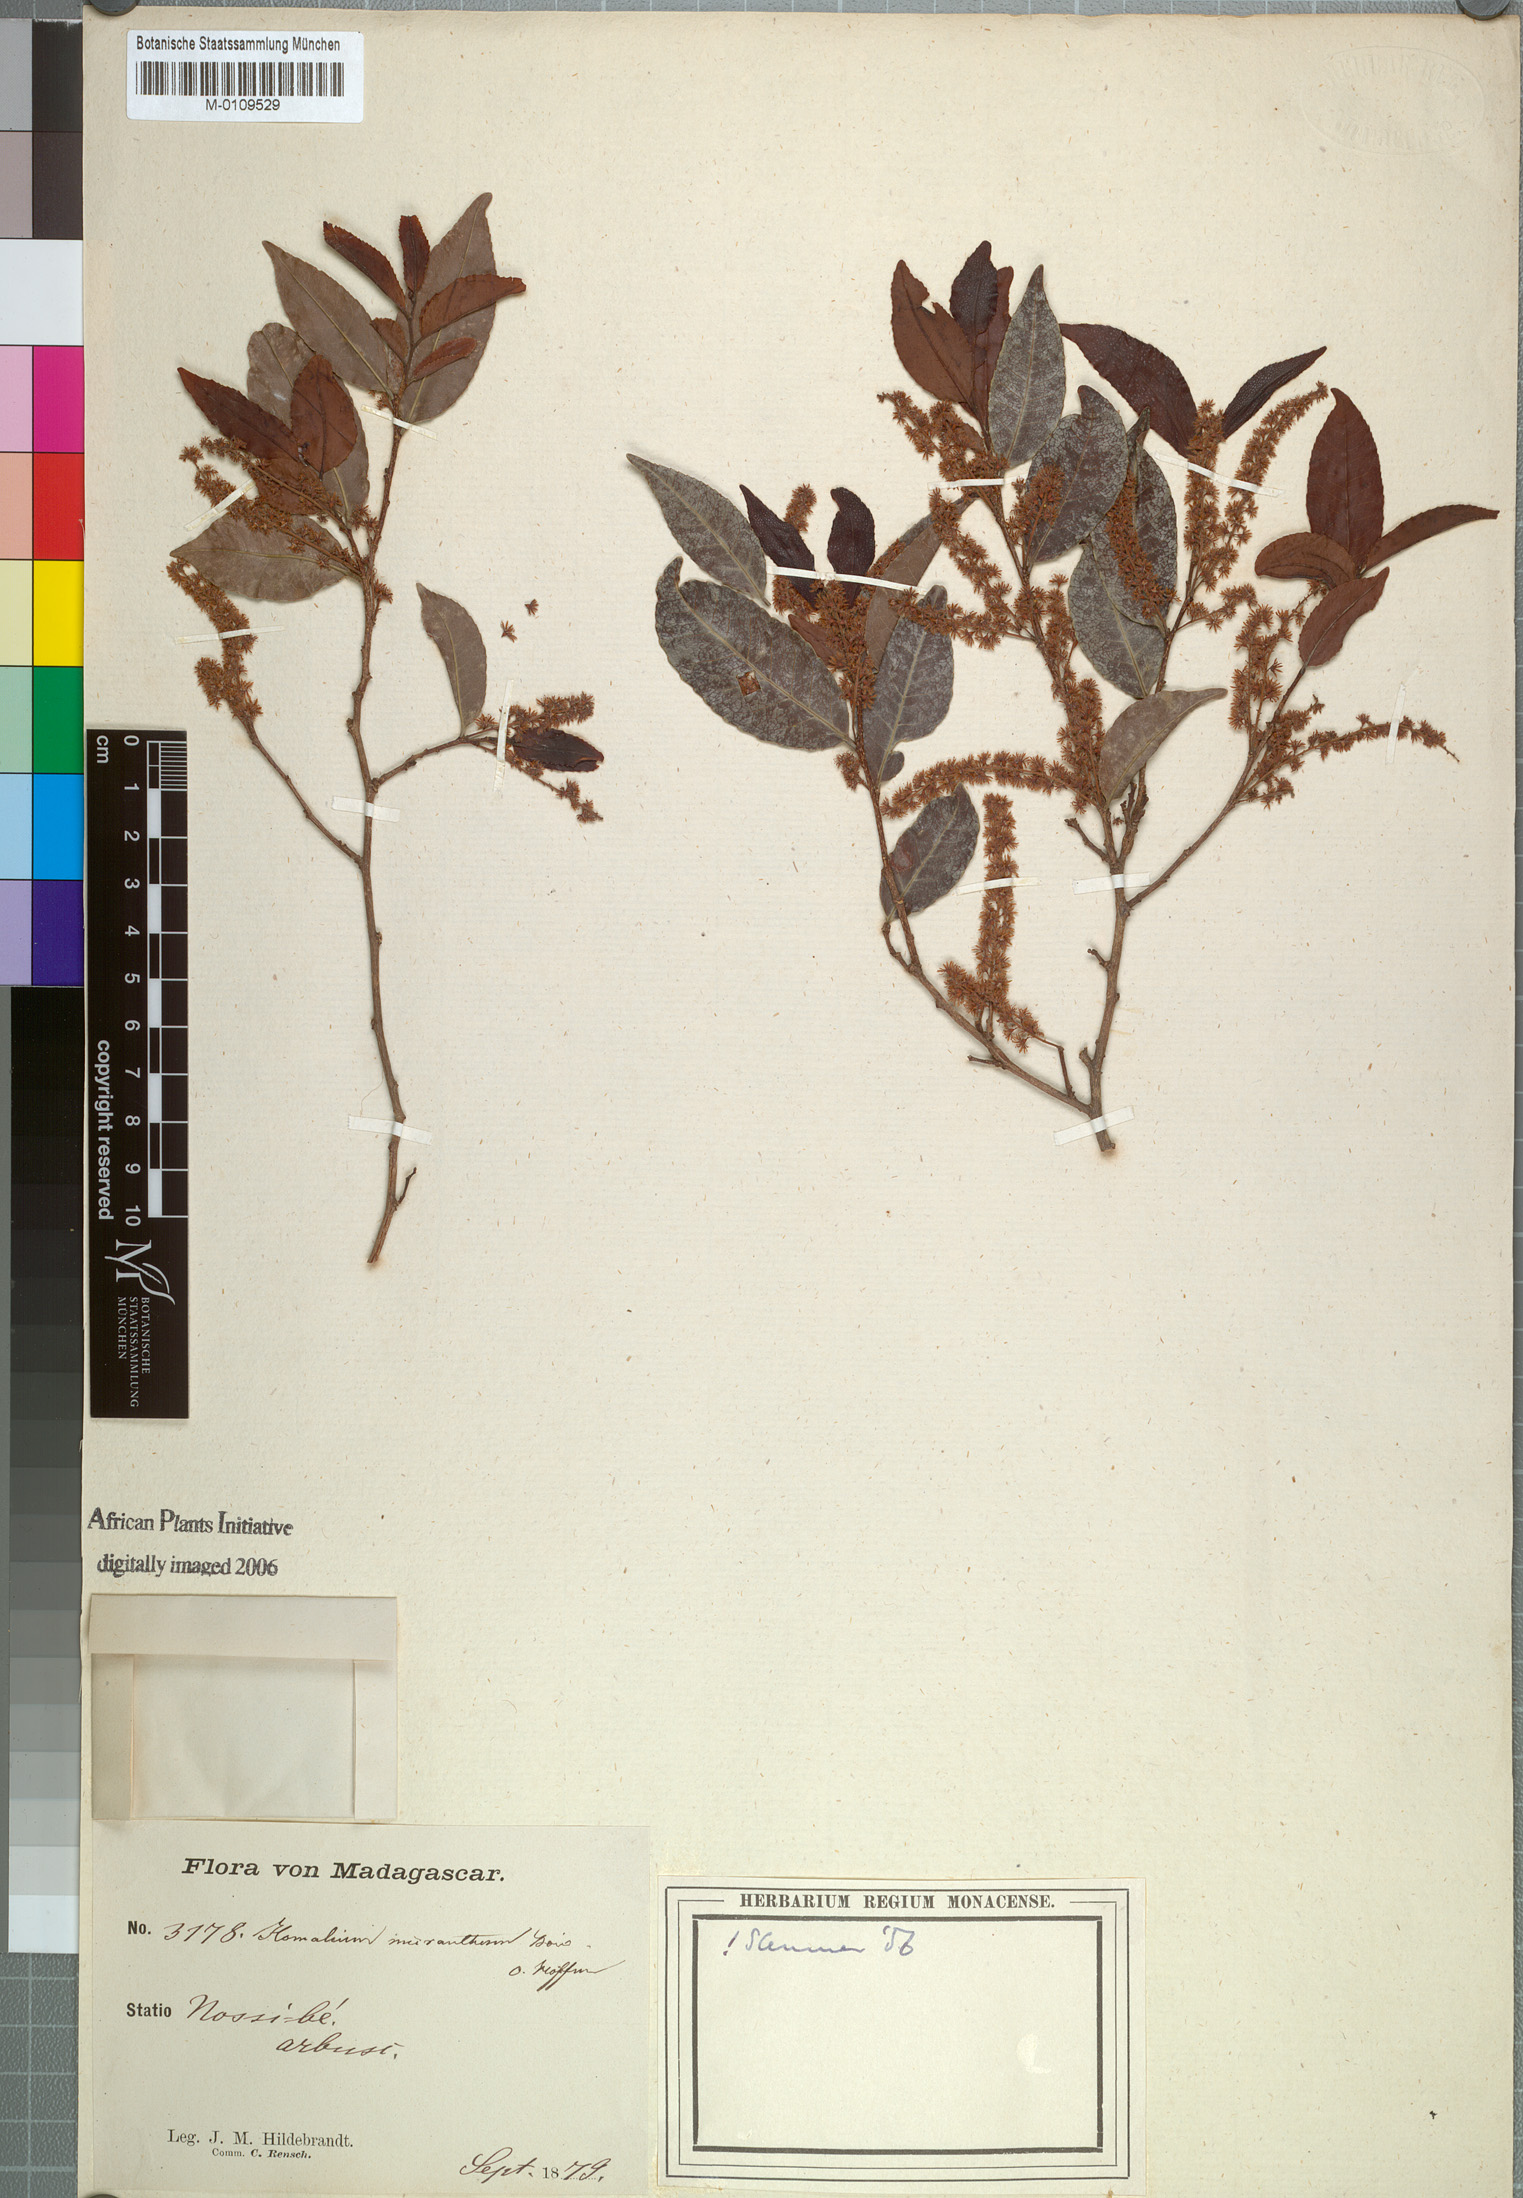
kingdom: Plantae
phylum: Tracheophyta
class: Magnoliopsida
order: Malpighiales
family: Salicaceae
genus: Homalium
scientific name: Homalium micranthum
